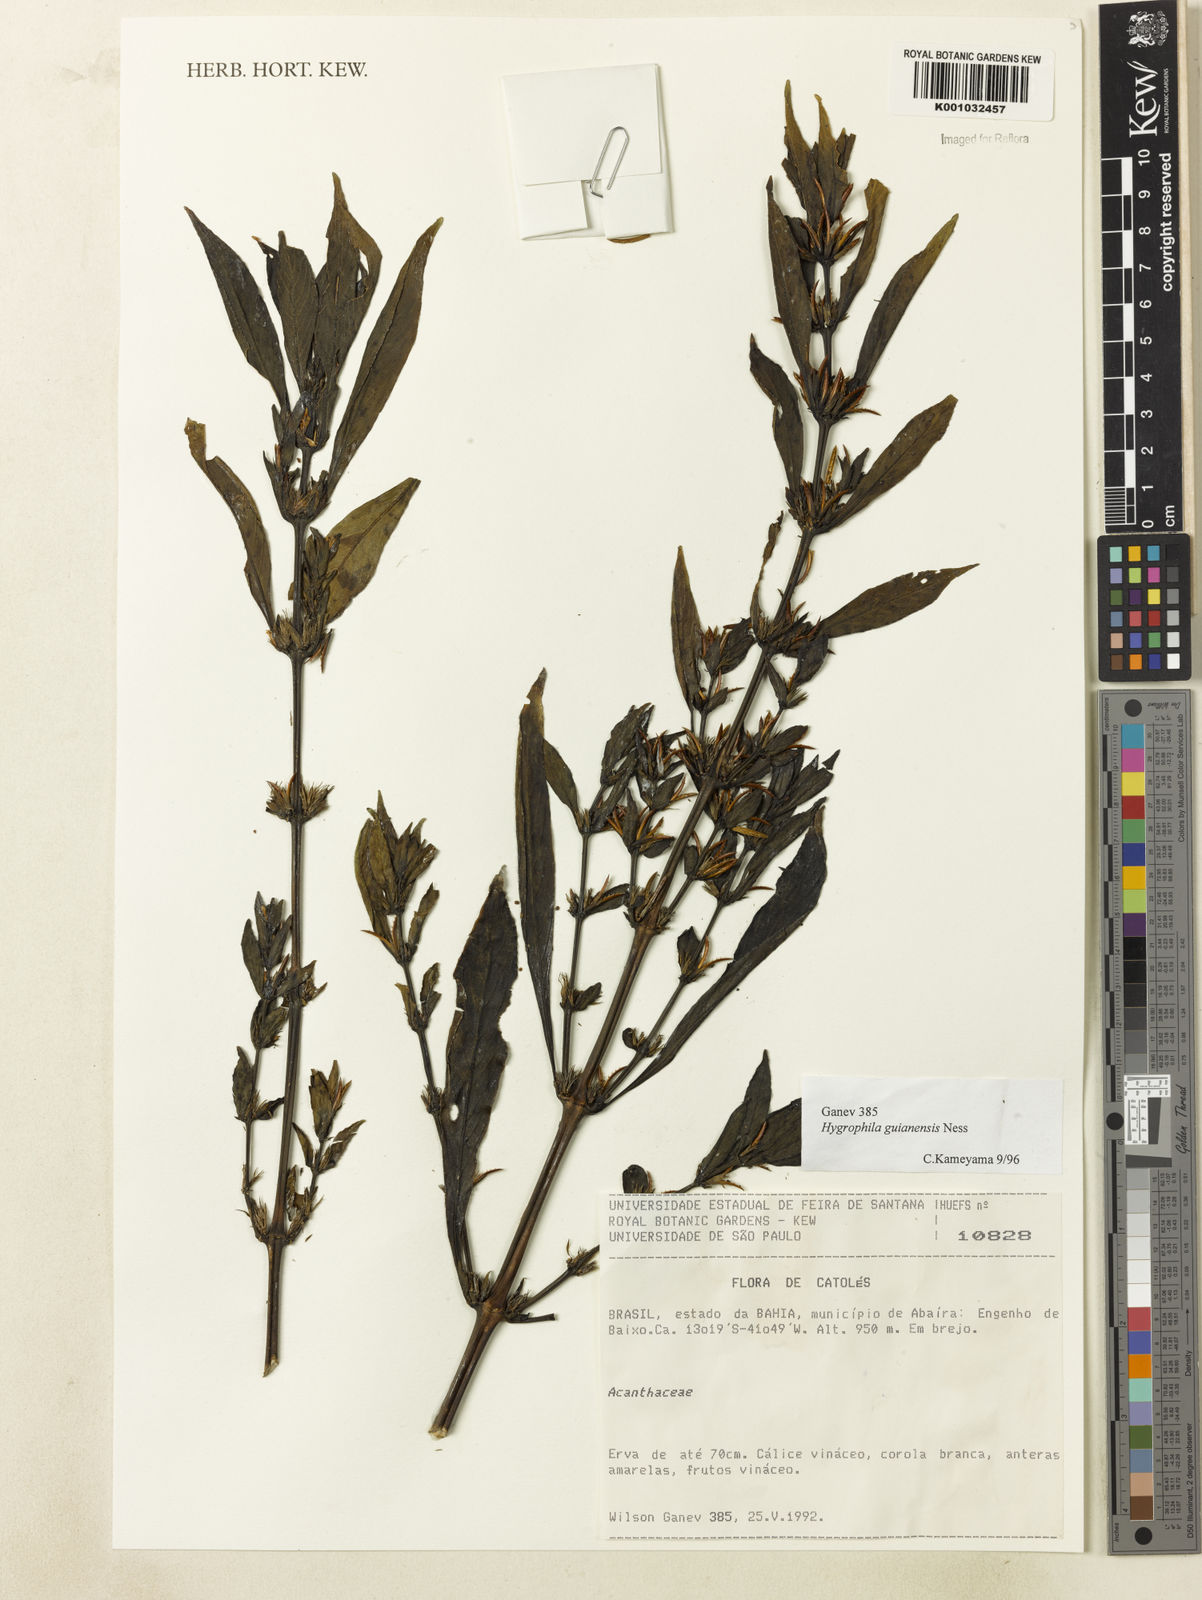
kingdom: Plantae
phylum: Tracheophyta
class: Magnoliopsida
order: Lamiales
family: Acanthaceae
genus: Hygrophila
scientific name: Hygrophila costata
